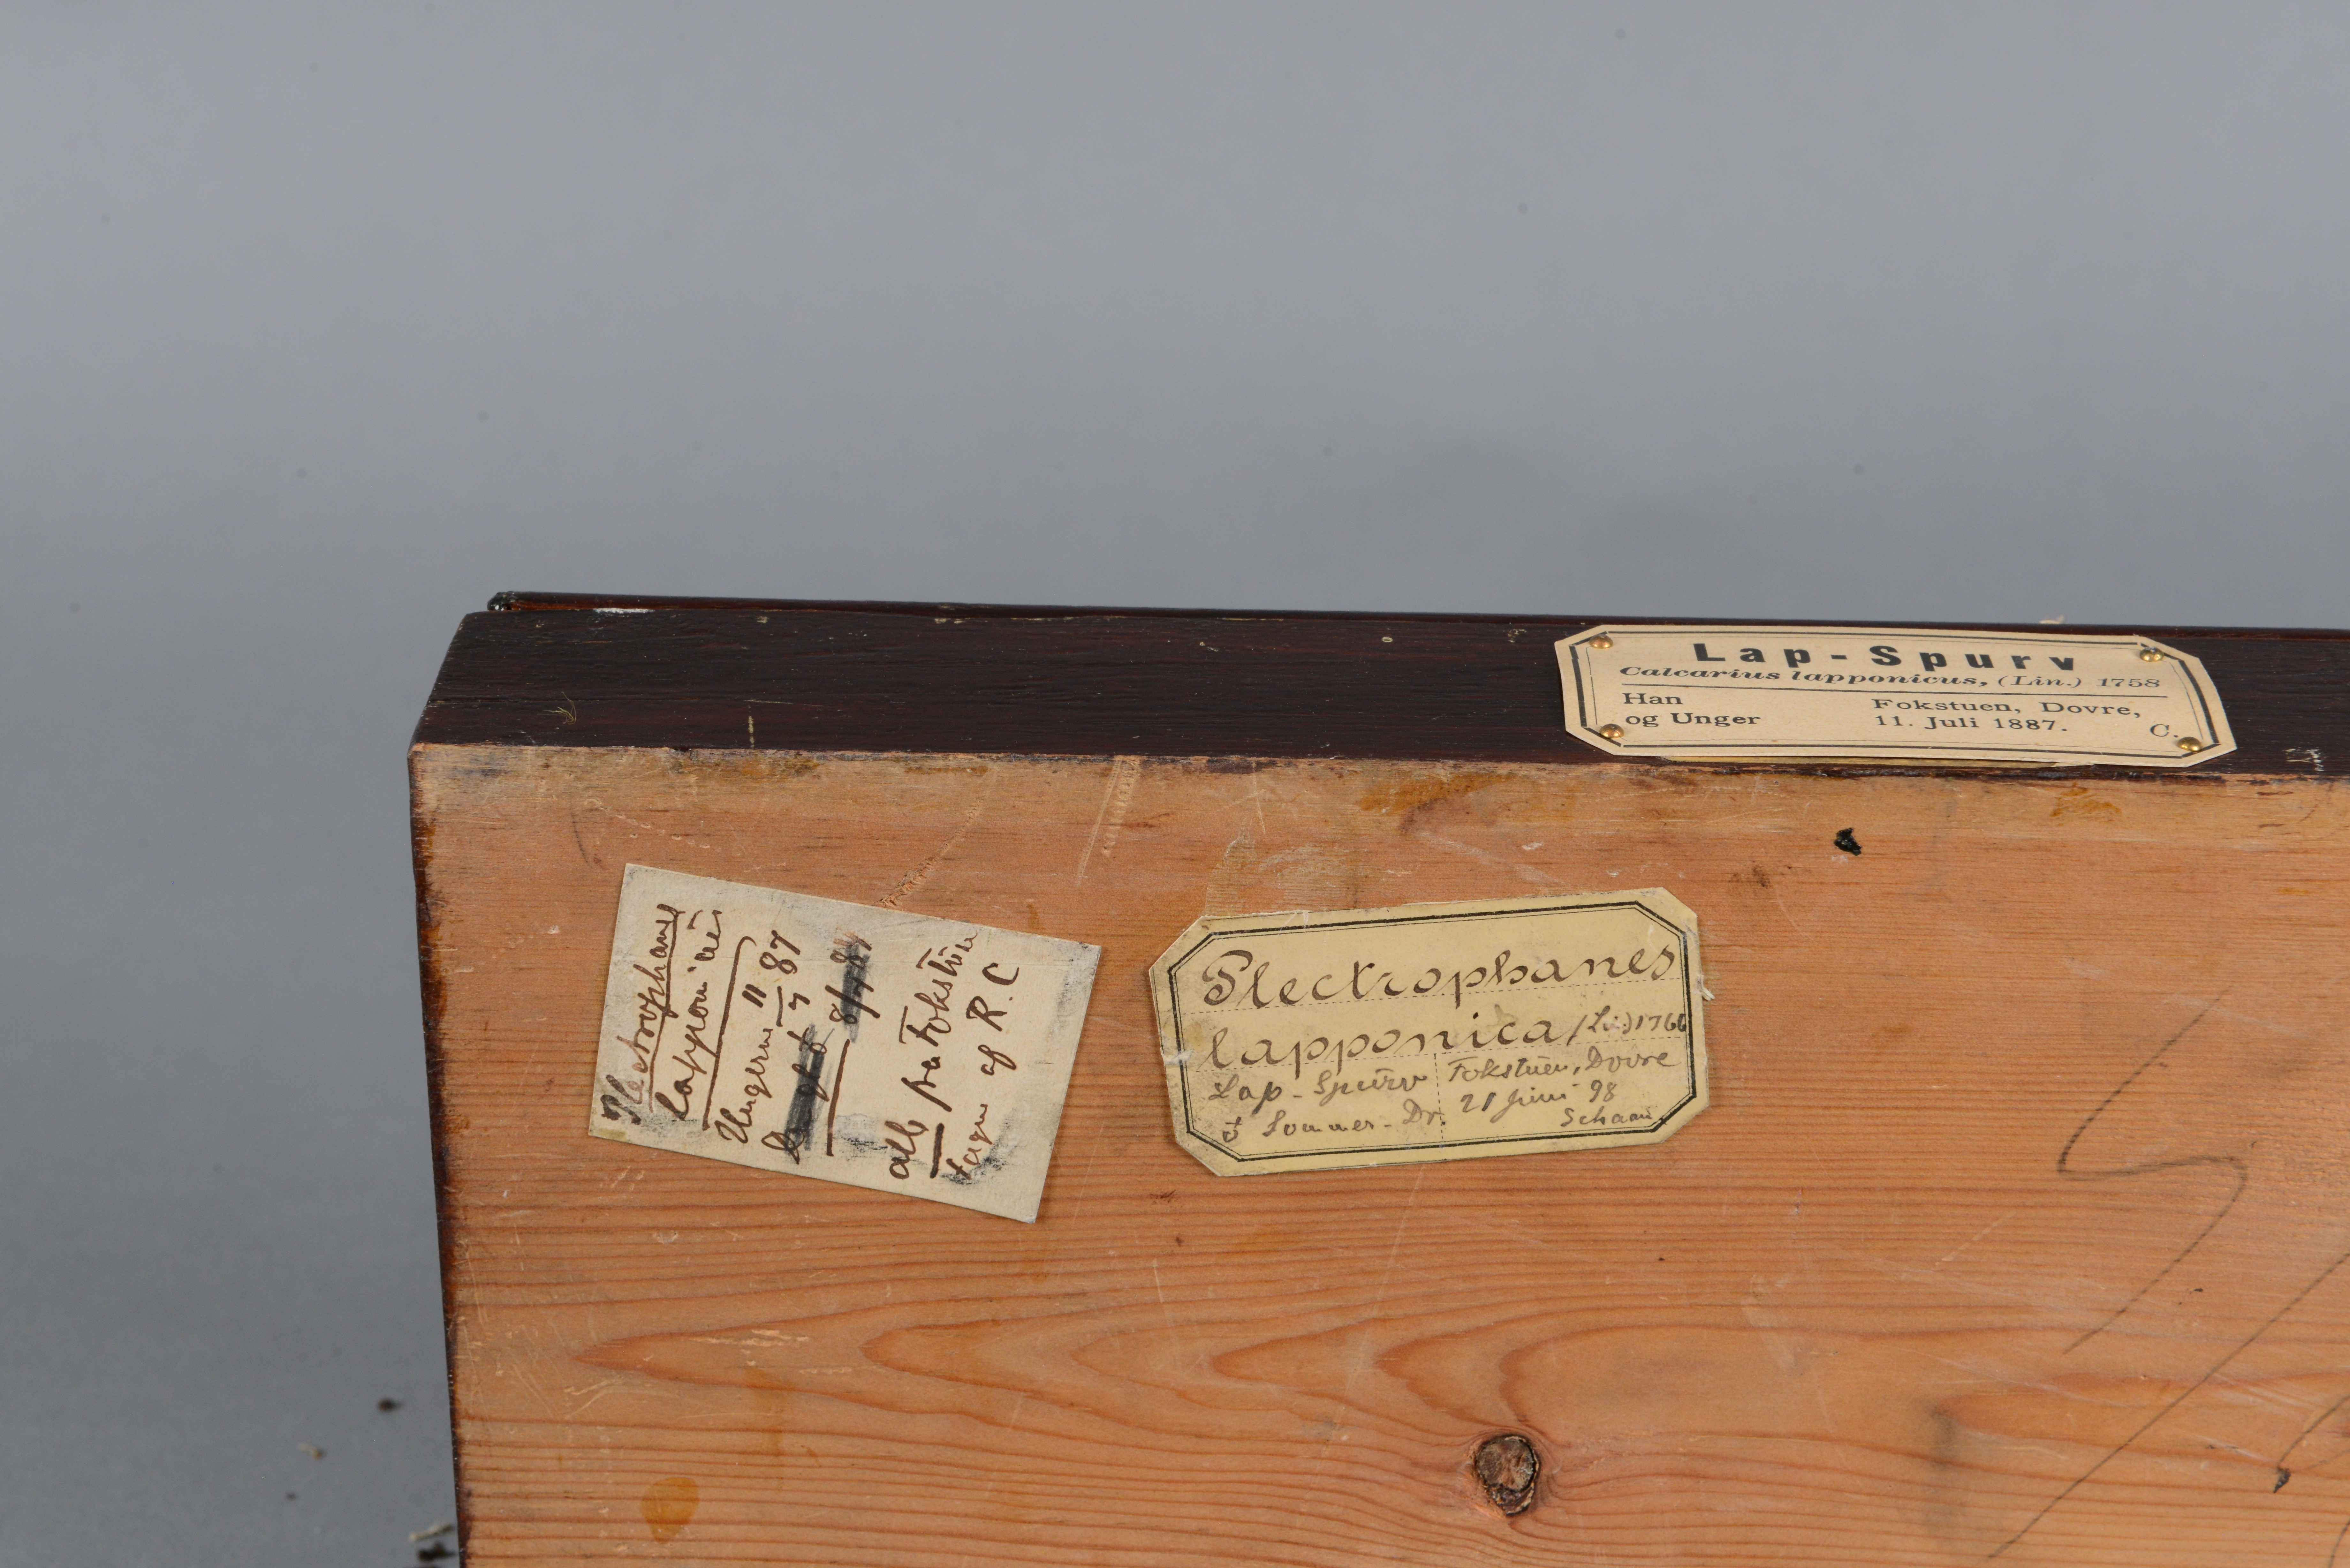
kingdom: Animalia
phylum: Chordata
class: Aves
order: Passeriformes
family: Calcariidae
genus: Calcarius
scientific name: Calcarius lapponicus
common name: Lapland longspur
